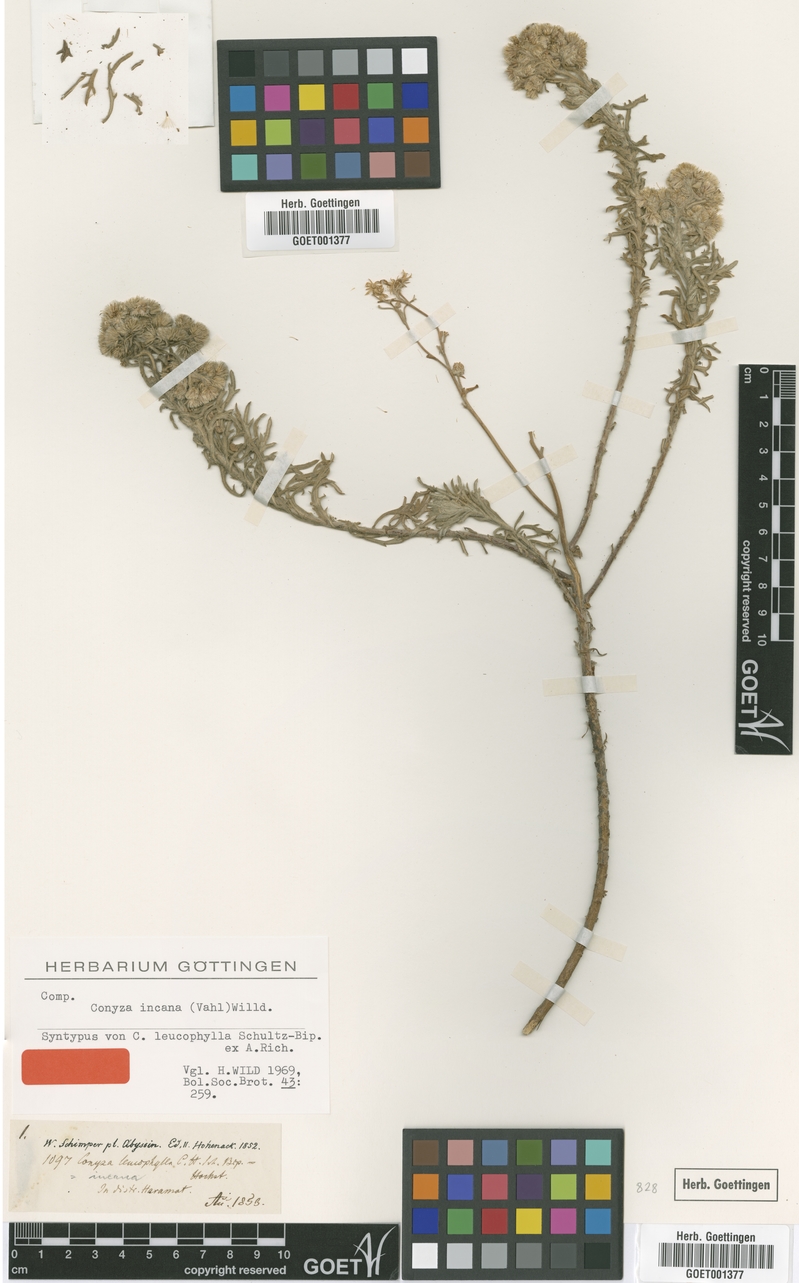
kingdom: Plantae
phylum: Tracheophyta
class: Magnoliopsida
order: Asterales
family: Asteraceae
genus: Conyza
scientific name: Conyza incana
